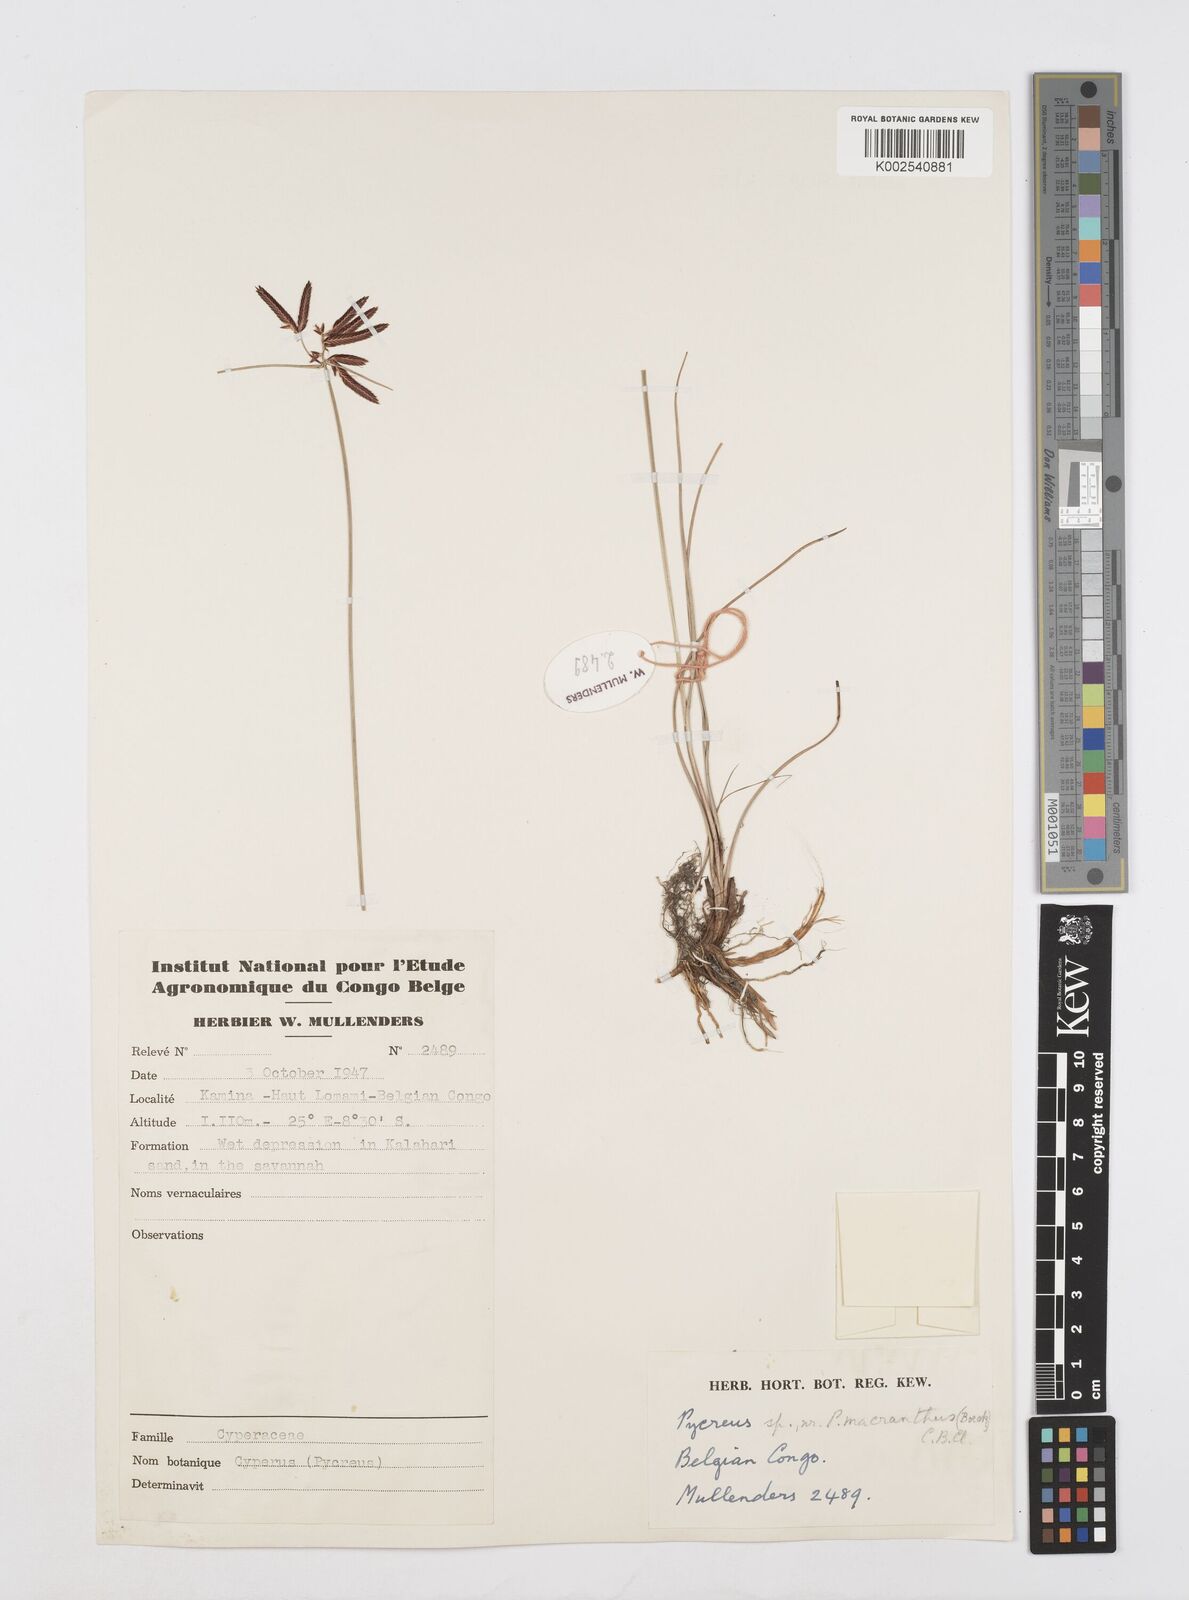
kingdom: Plantae
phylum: Tracheophyta
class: Liliopsida
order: Poales
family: Cyperaceae
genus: Cyperus
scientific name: Cyperus nigricans
